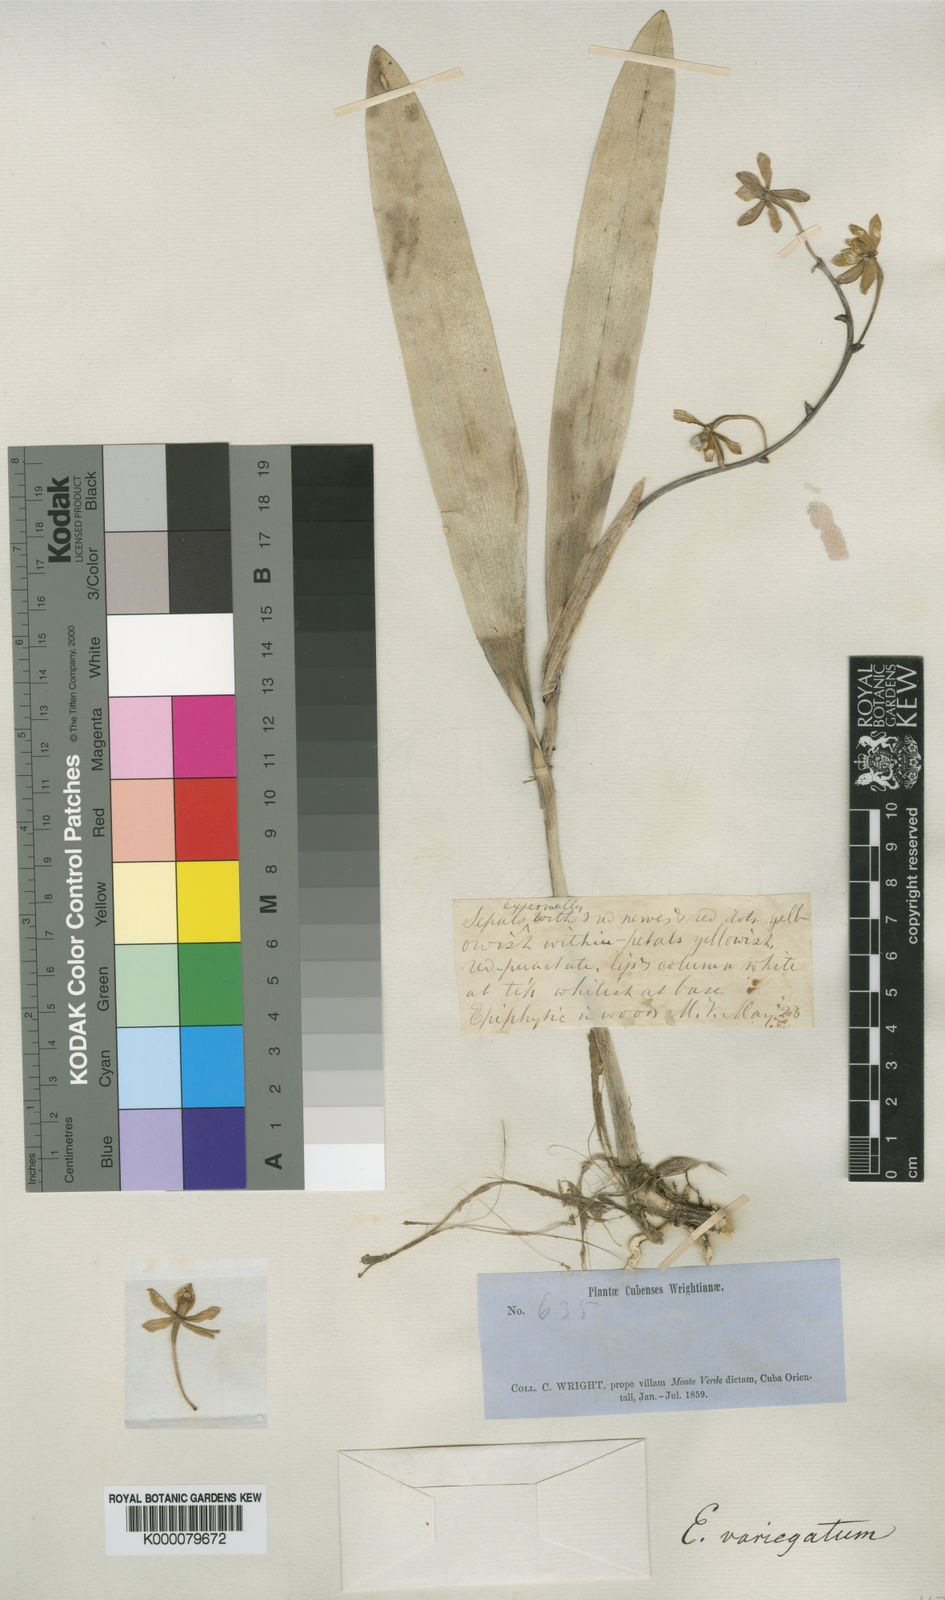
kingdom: Plantae
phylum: Tracheophyta
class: Liliopsida
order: Asparagales
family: Orchidaceae
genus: Prosthechea
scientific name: Prosthechea pachysepala
